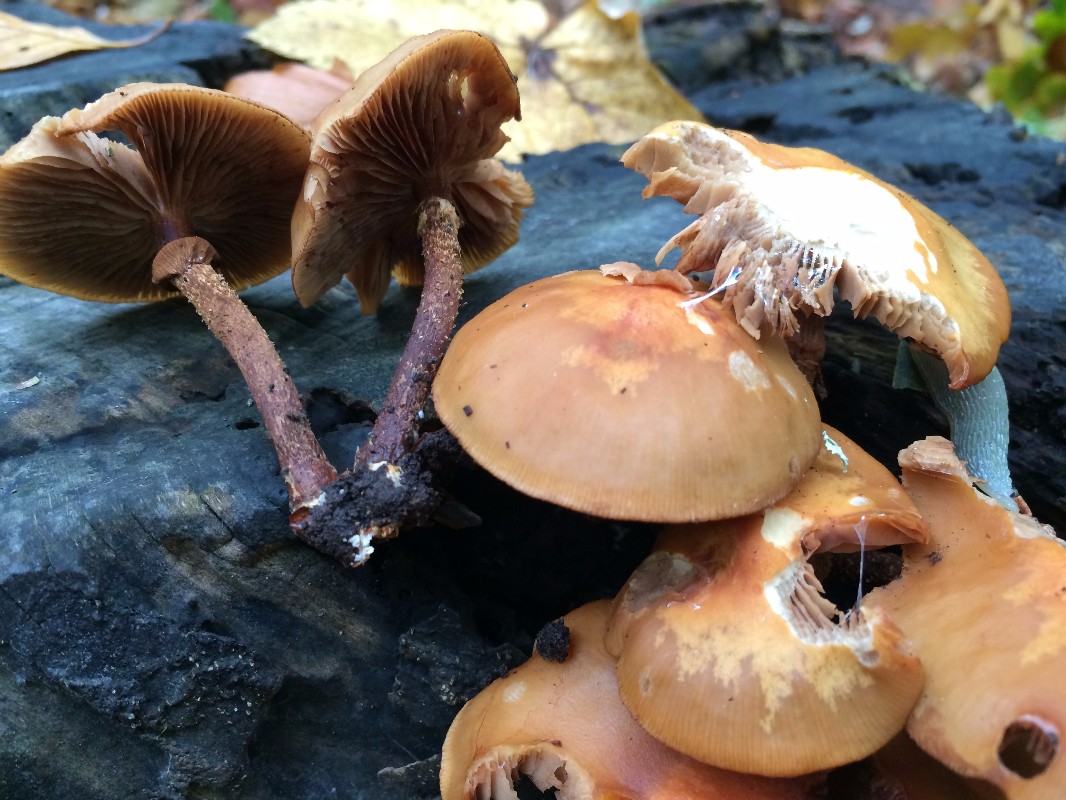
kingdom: Fungi
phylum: Basidiomycota
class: Agaricomycetes
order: Agaricales
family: Strophariaceae
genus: Kuehneromyces
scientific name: Kuehneromyces mutabilis
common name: foranderlig skælhat
